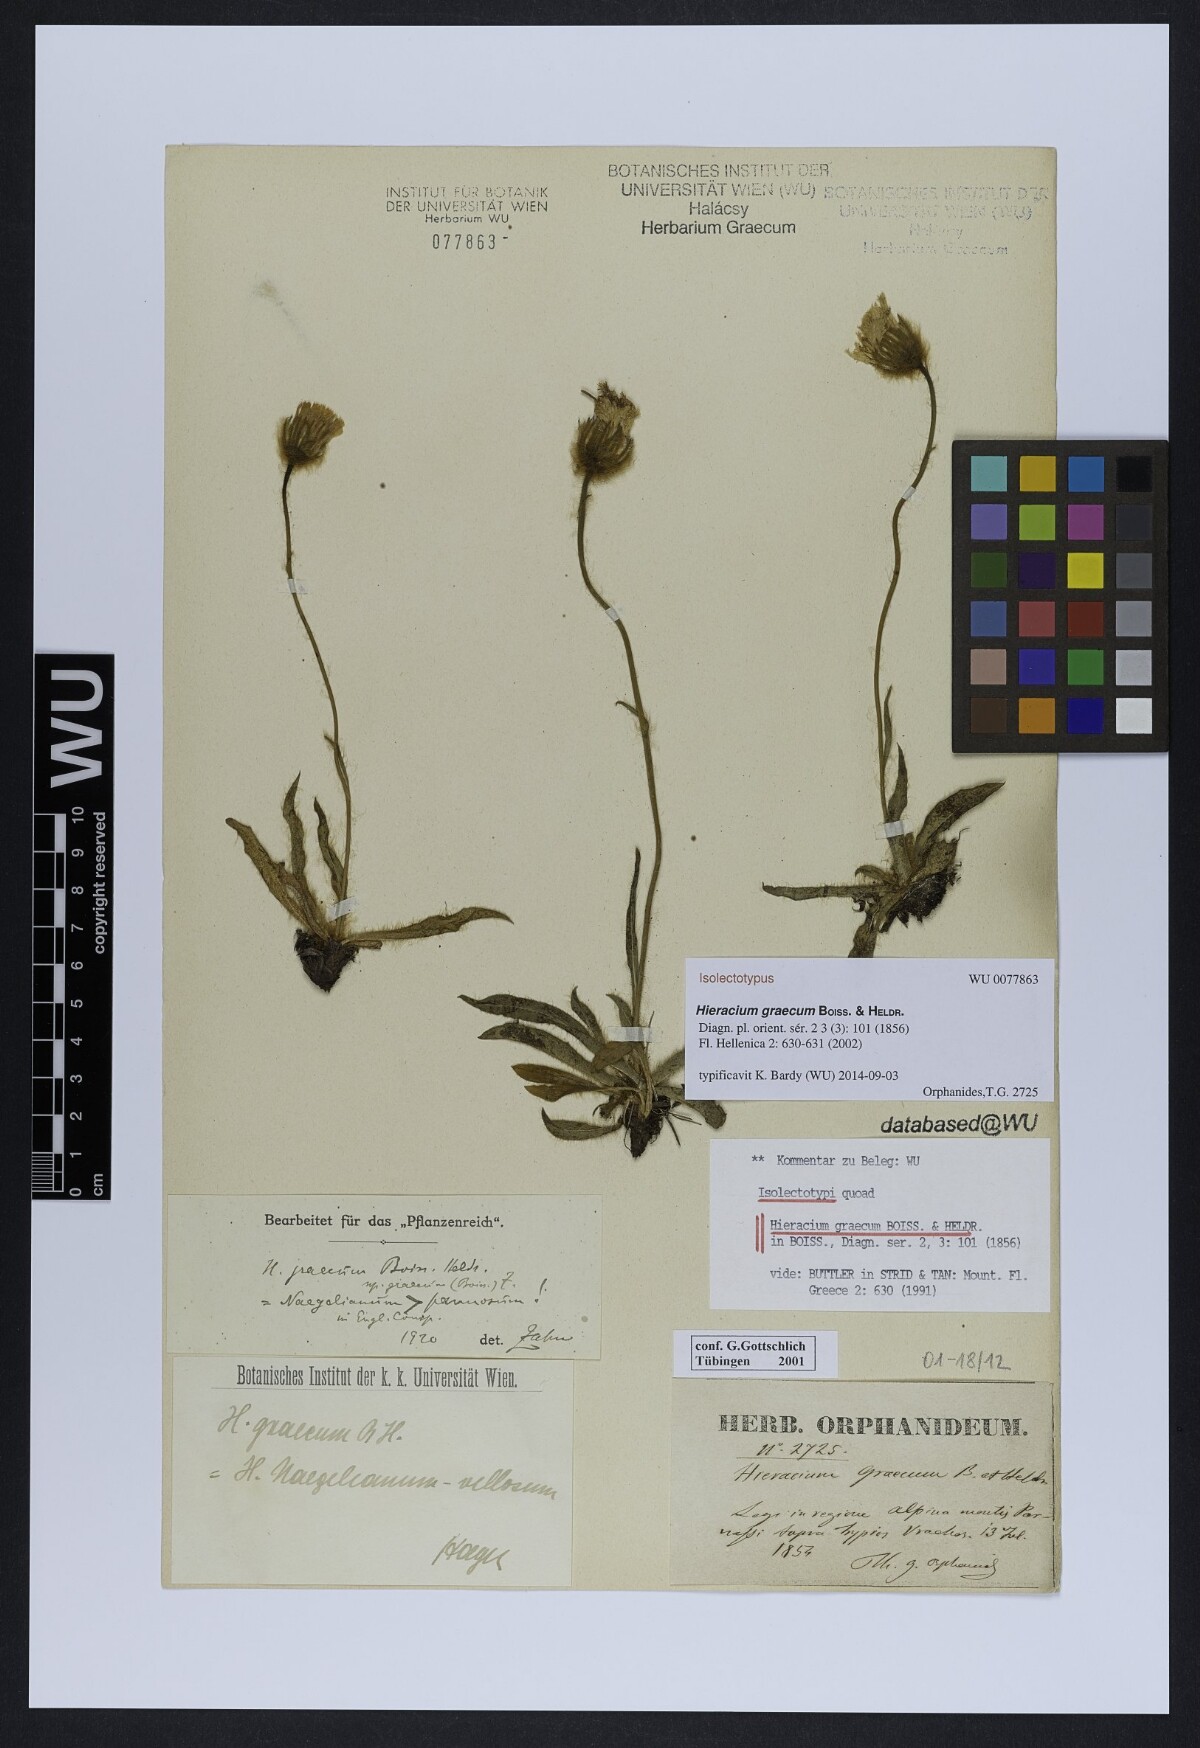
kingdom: Plantae
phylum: Tracheophyta
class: Magnoliopsida
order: Asterales
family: Asteraceae
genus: Hieracium
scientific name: Hieracium graecum
